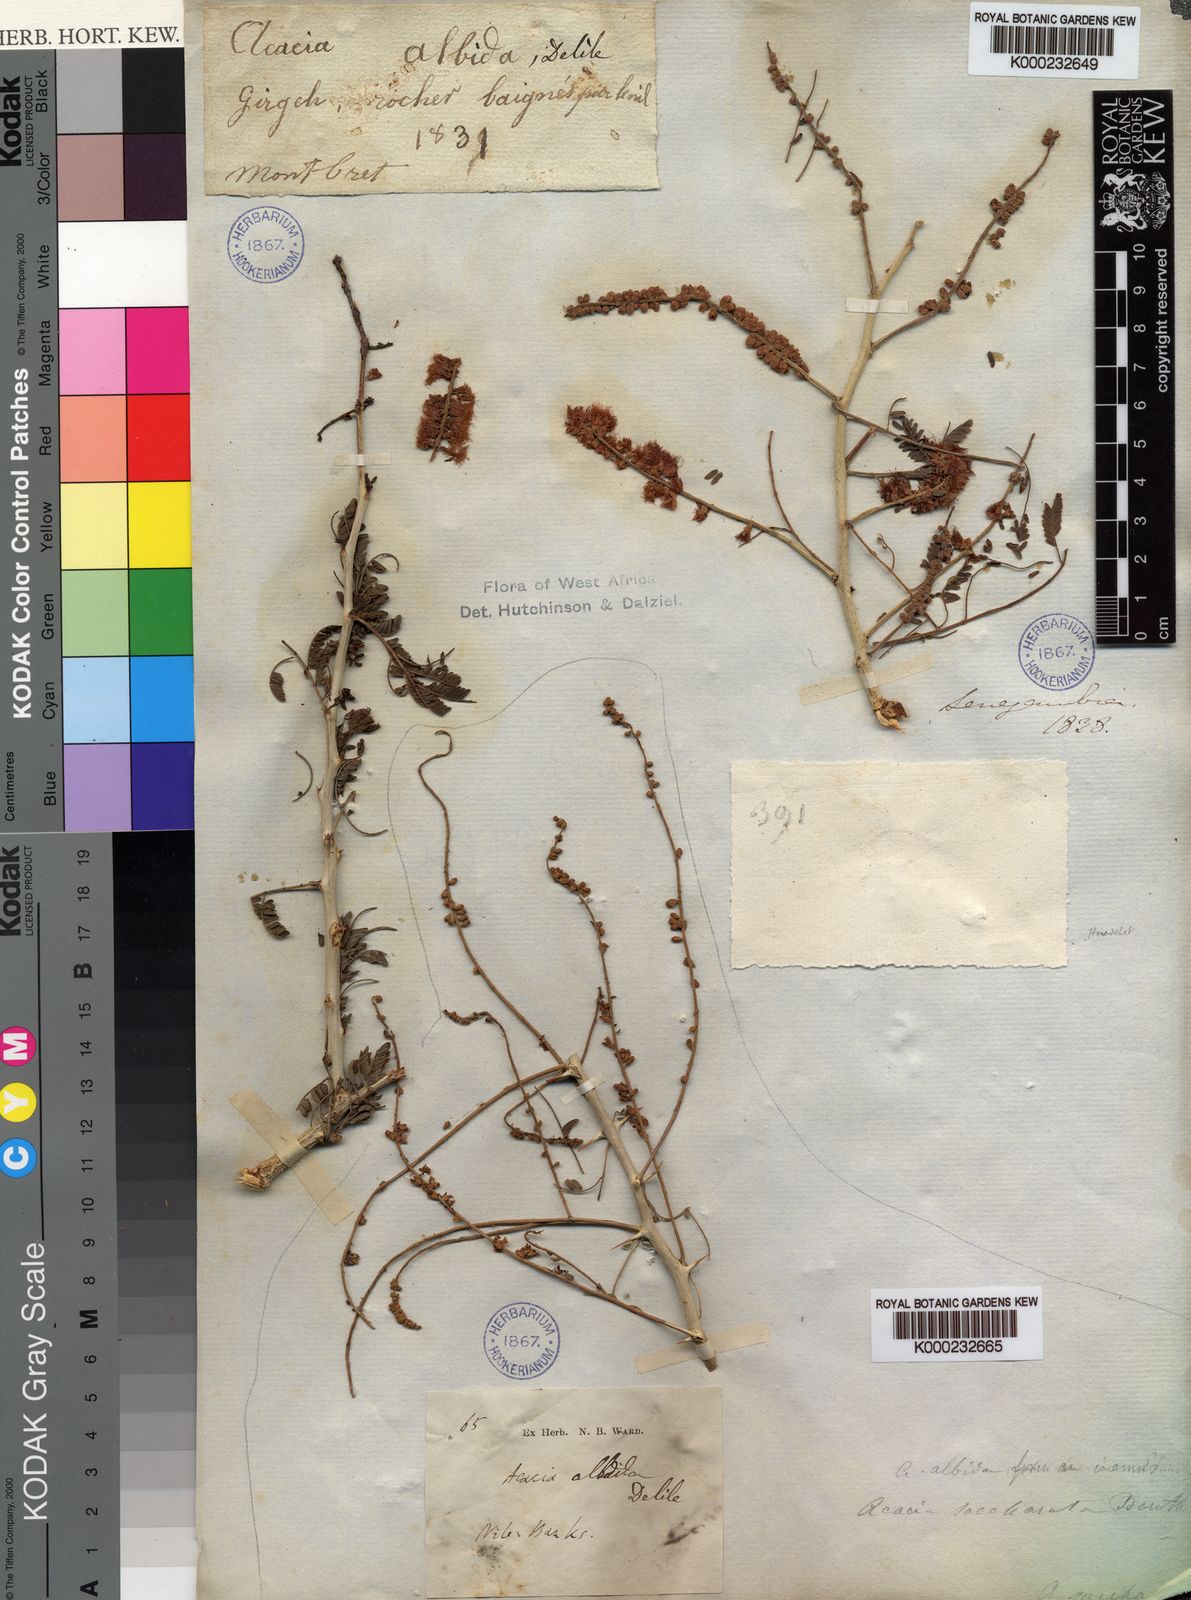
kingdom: Plantae
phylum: Tracheophyta
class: Magnoliopsida
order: Fabales
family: Fabaceae
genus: Faidherbia
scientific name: Faidherbia albida
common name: Anatree
